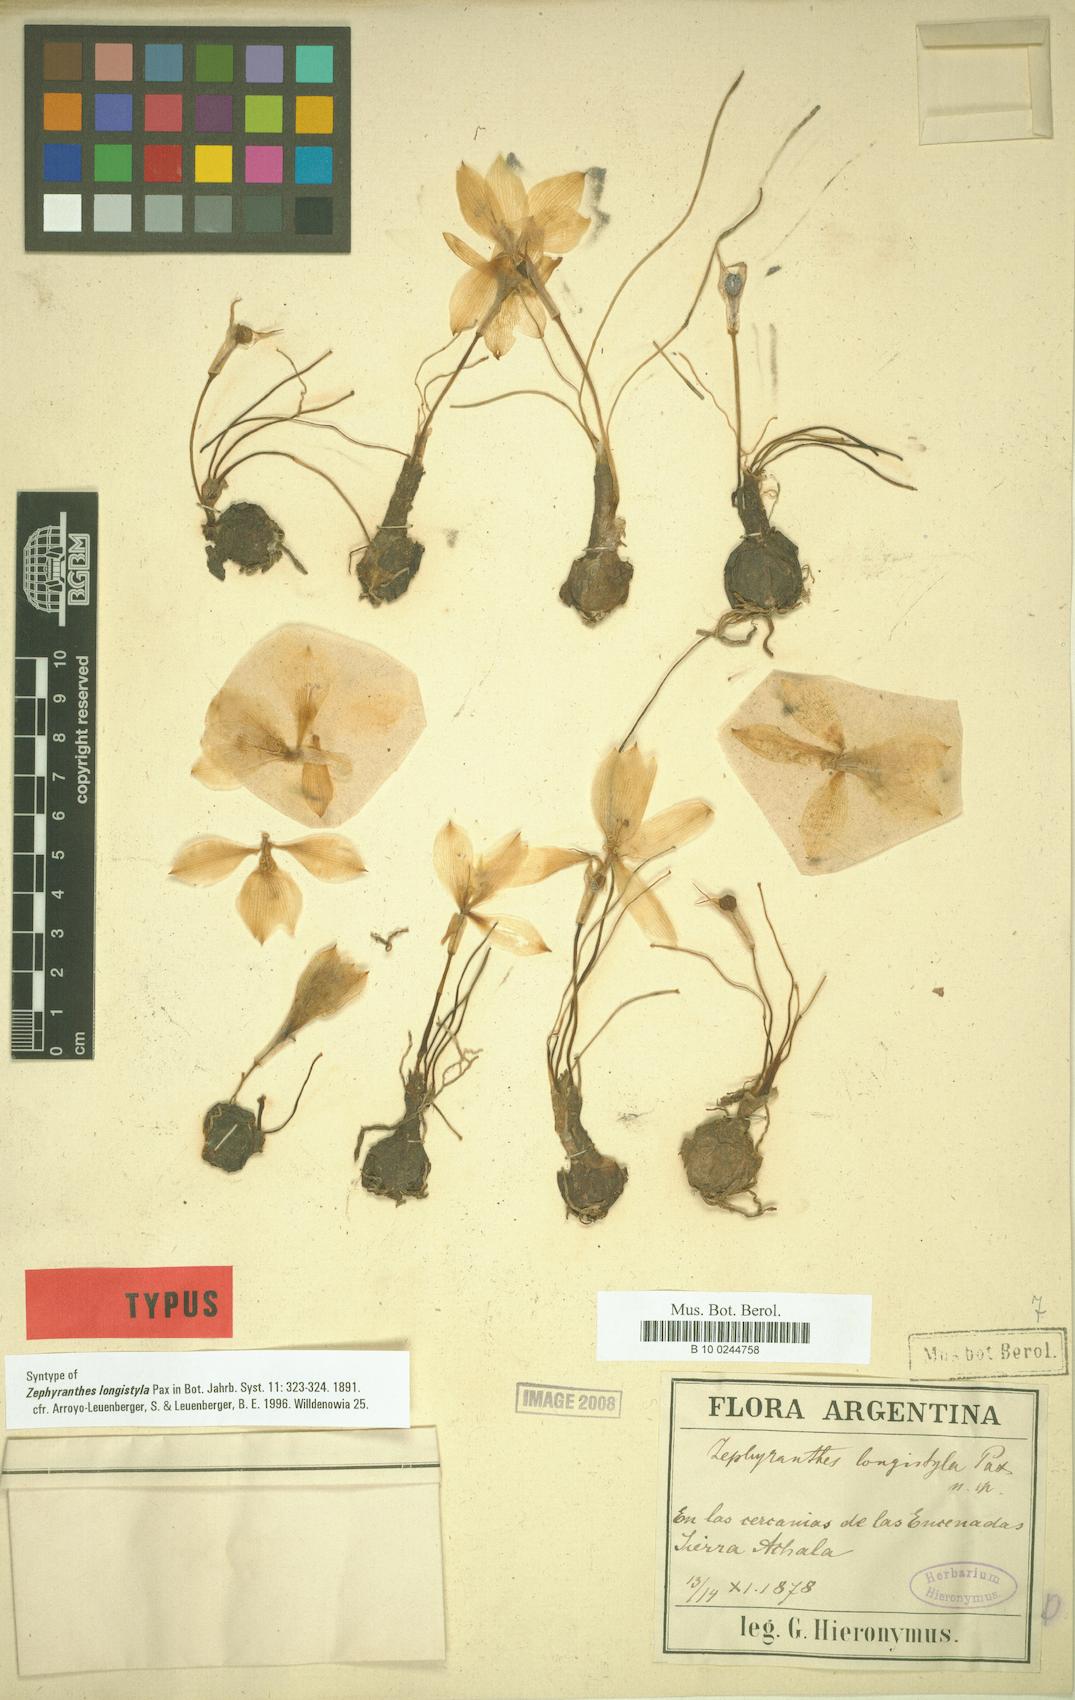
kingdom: Plantae
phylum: Tracheophyta
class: Liliopsida
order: Asparagales
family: Amaryllidaceae
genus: Zephyranthes
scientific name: Zephyranthes longistyla
